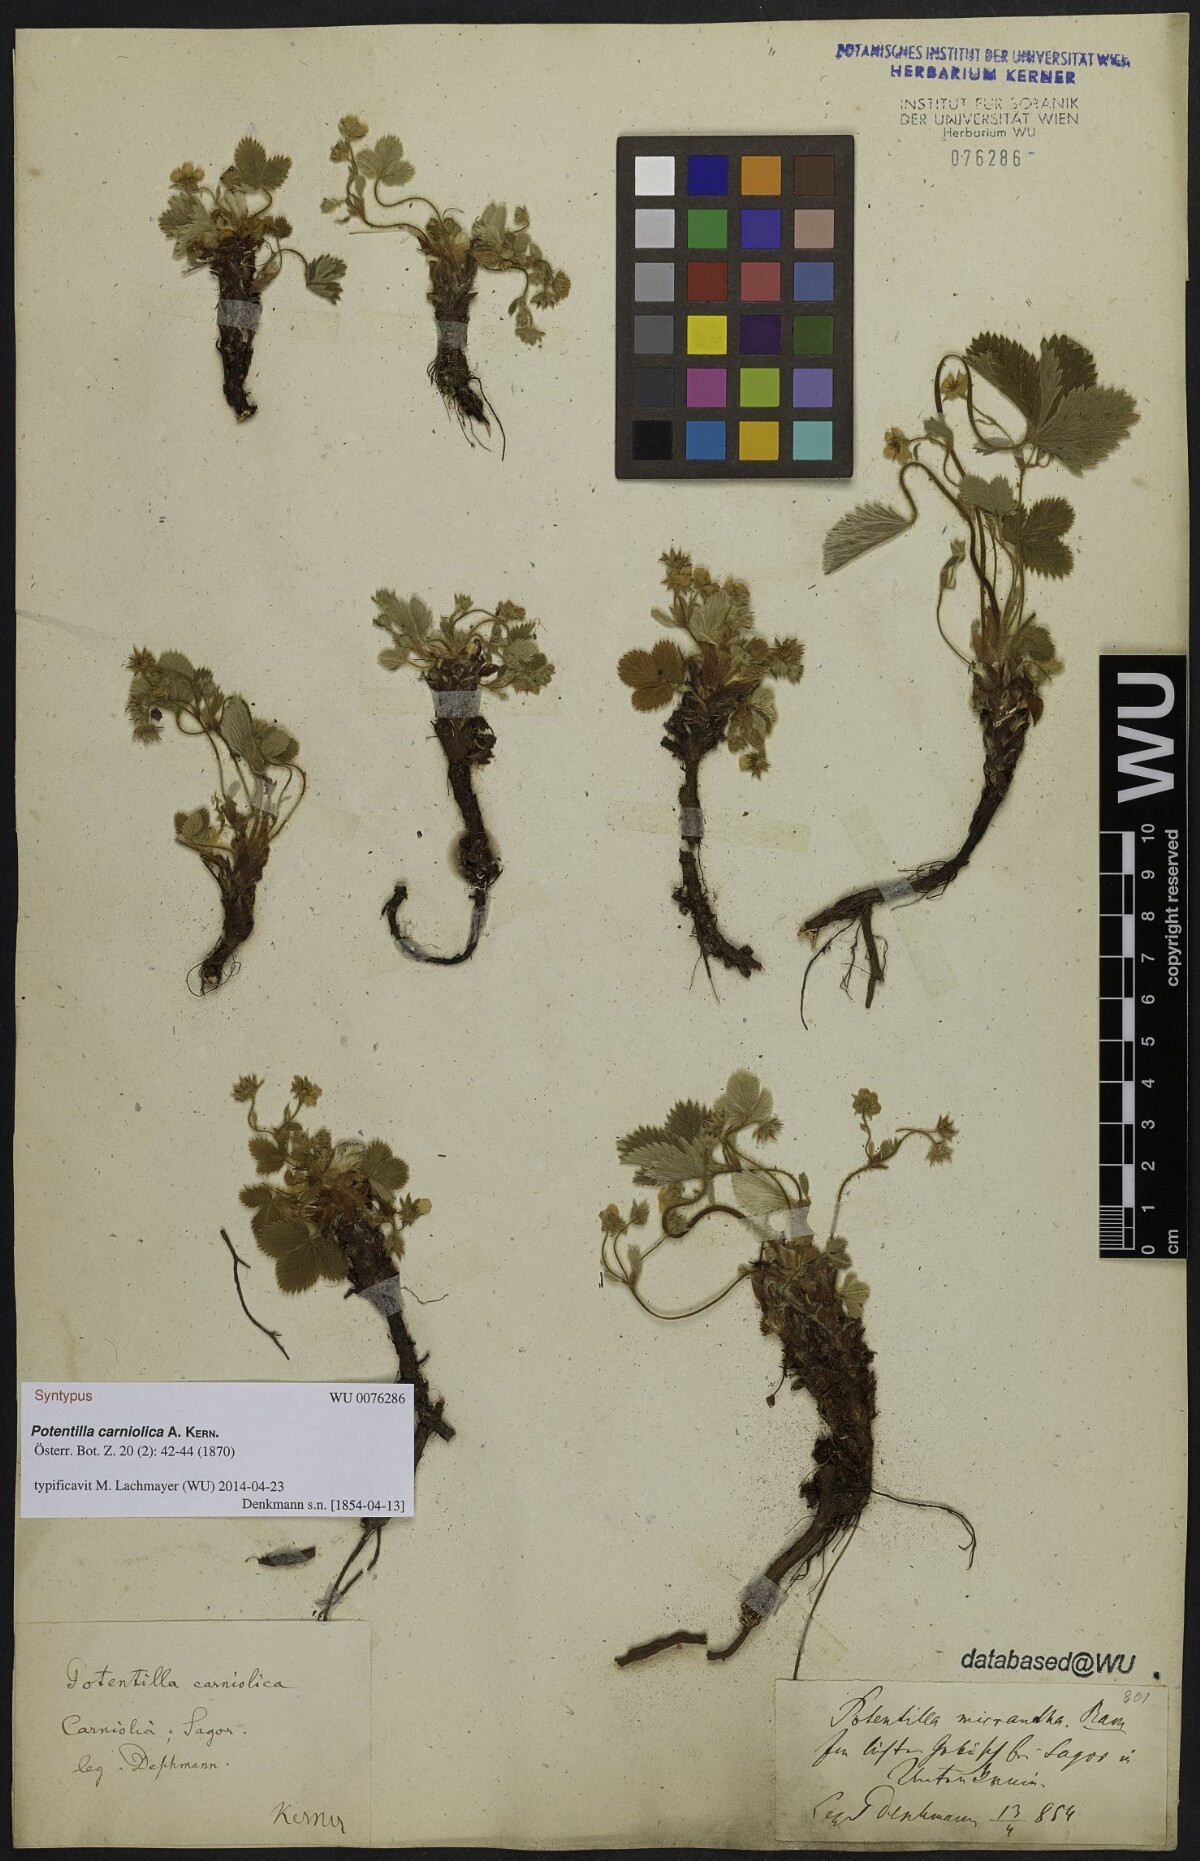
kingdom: Plantae
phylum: Tracheophyta
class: Magnoliopsida
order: Rosales
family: Rosaceae
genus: Potentilla
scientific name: Potentilla carniolica
